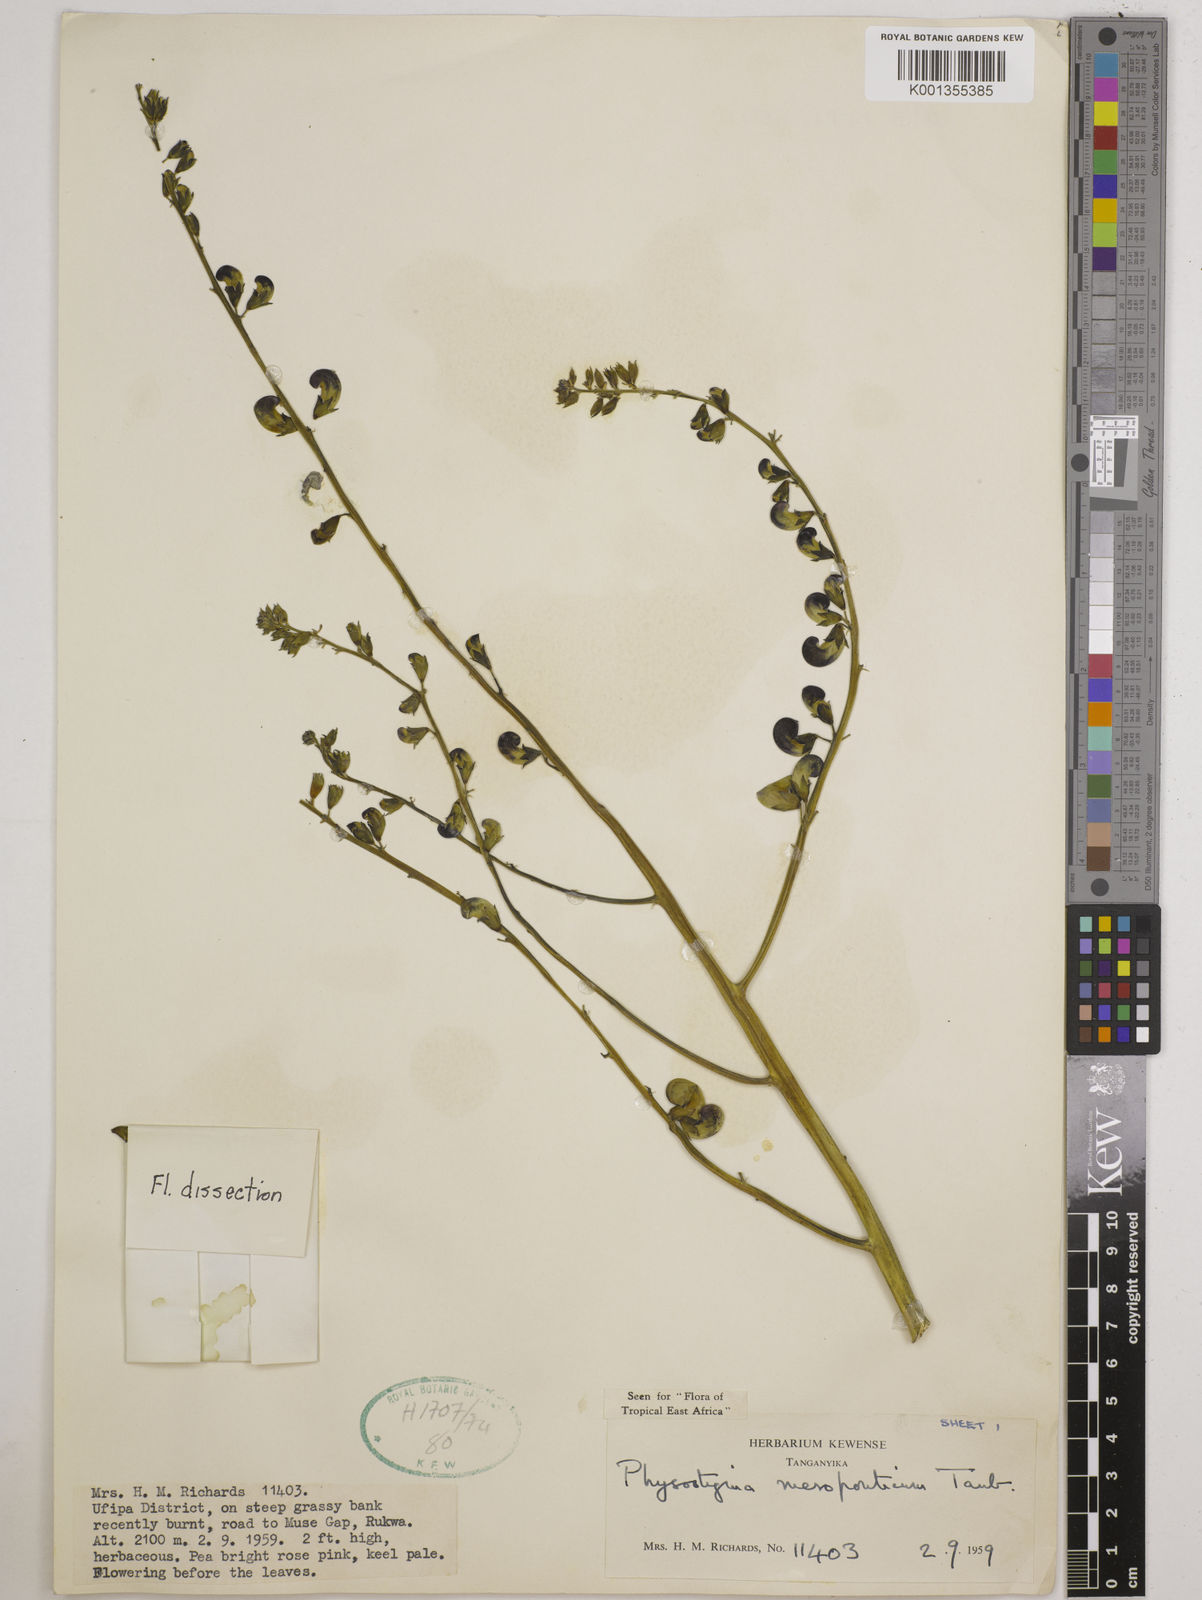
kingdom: Plantae
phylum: Tracheophyta
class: Magnoliopsida
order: Fabales
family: Fabaceae
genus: Physostigma
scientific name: Physostigma mesoponticum
